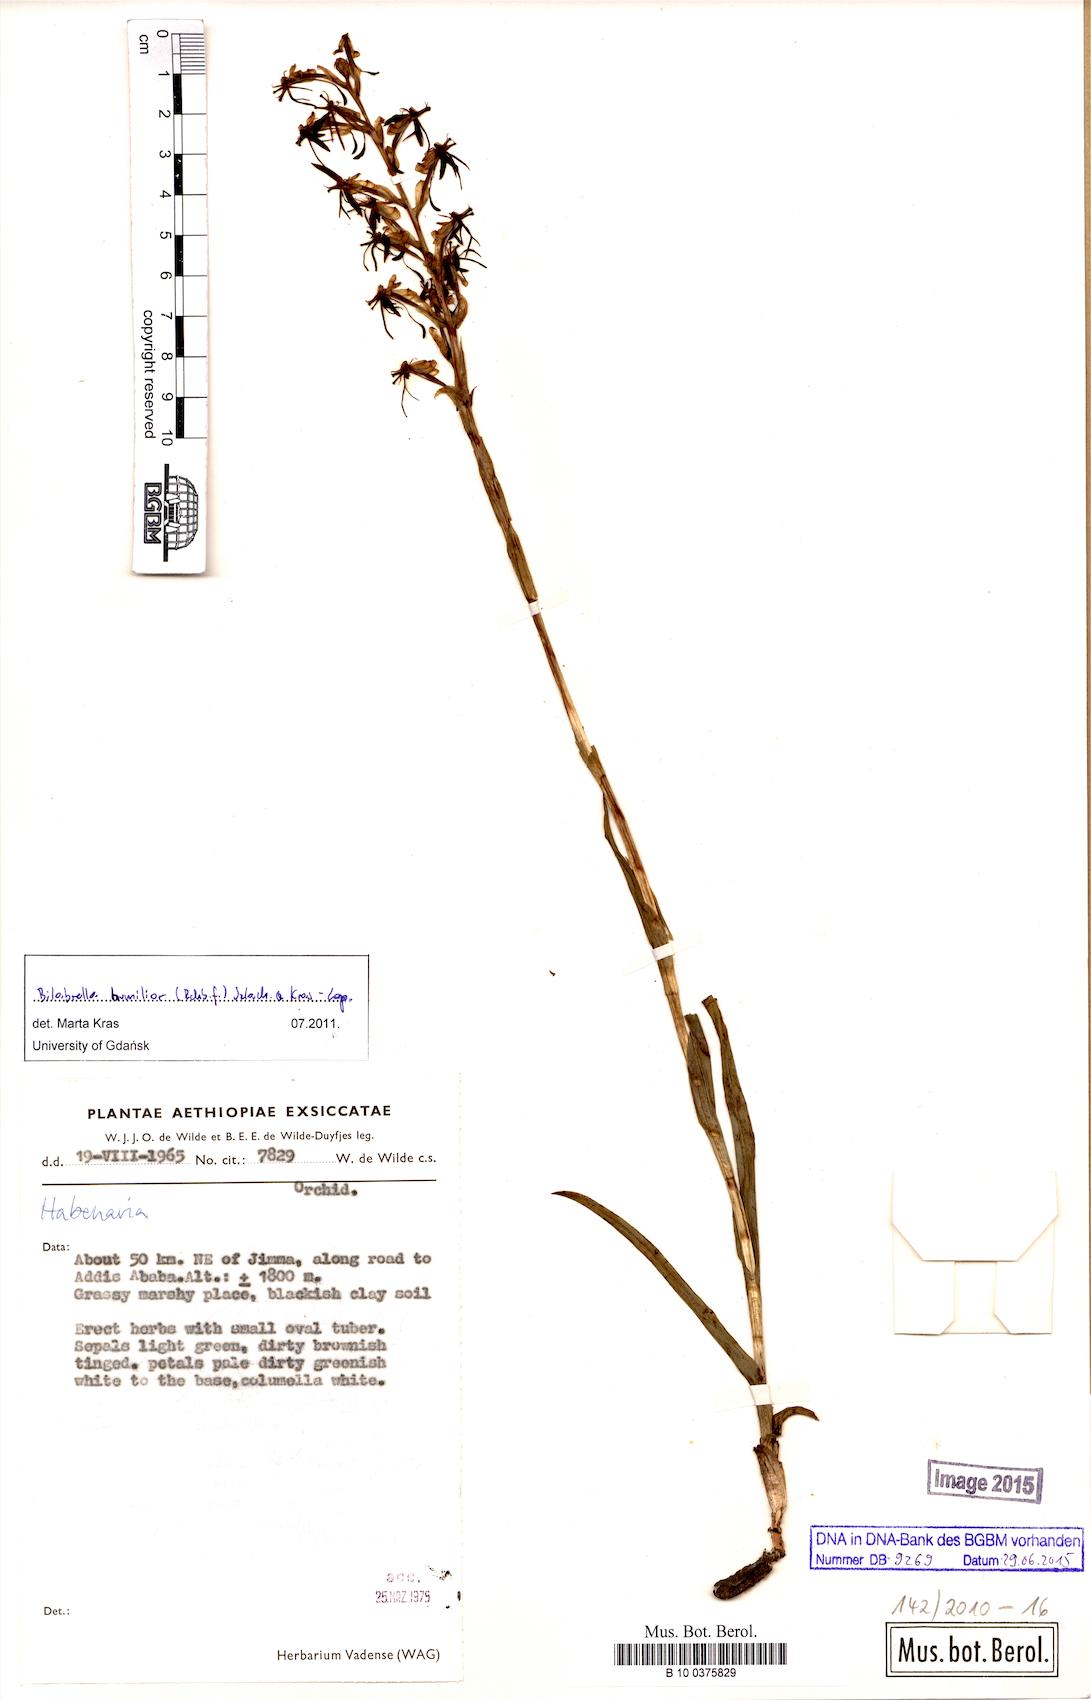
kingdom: Plantae
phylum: Tracheophyta
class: Liliopsida
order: Asparagales
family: Orchidaceae
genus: Habenaria
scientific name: Habenaria humilior
